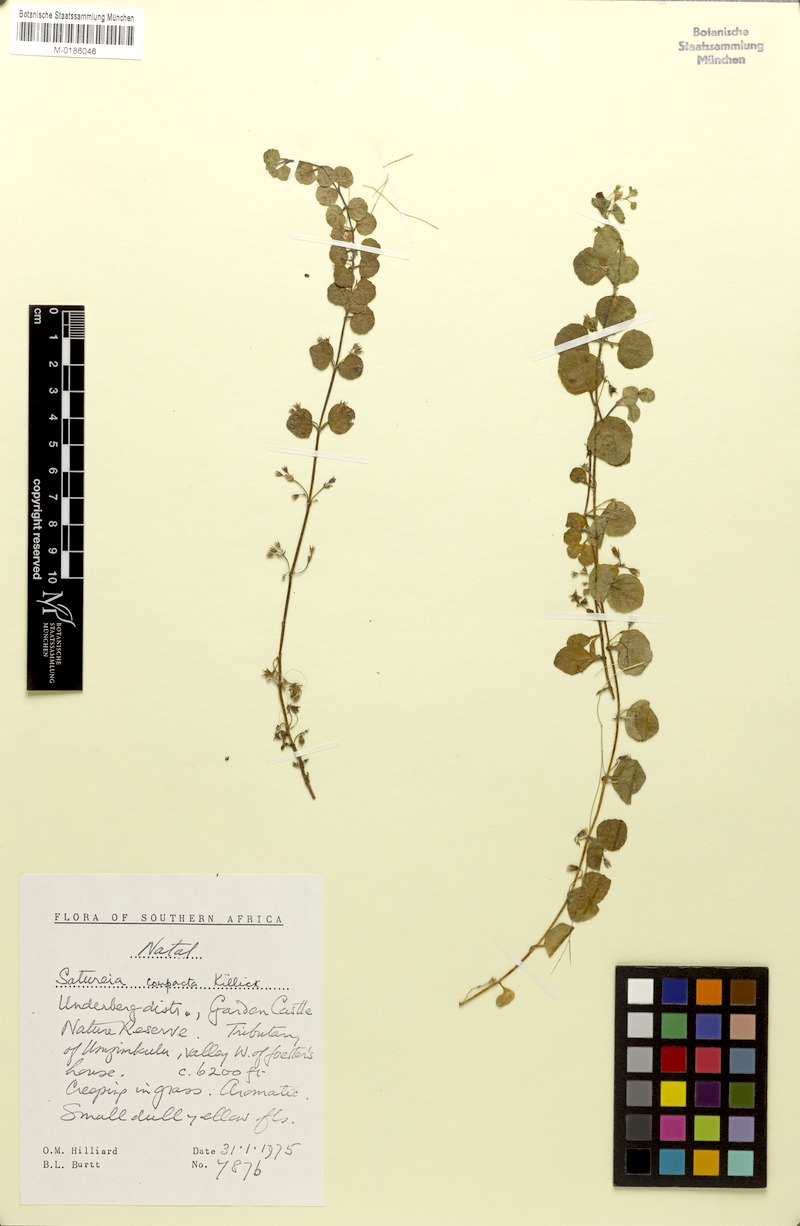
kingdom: Plantae
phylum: Tracheophyta
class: Magnoliopsida
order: Lamiales
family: Lamiaceae
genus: Killickia
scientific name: Killickia lutea
